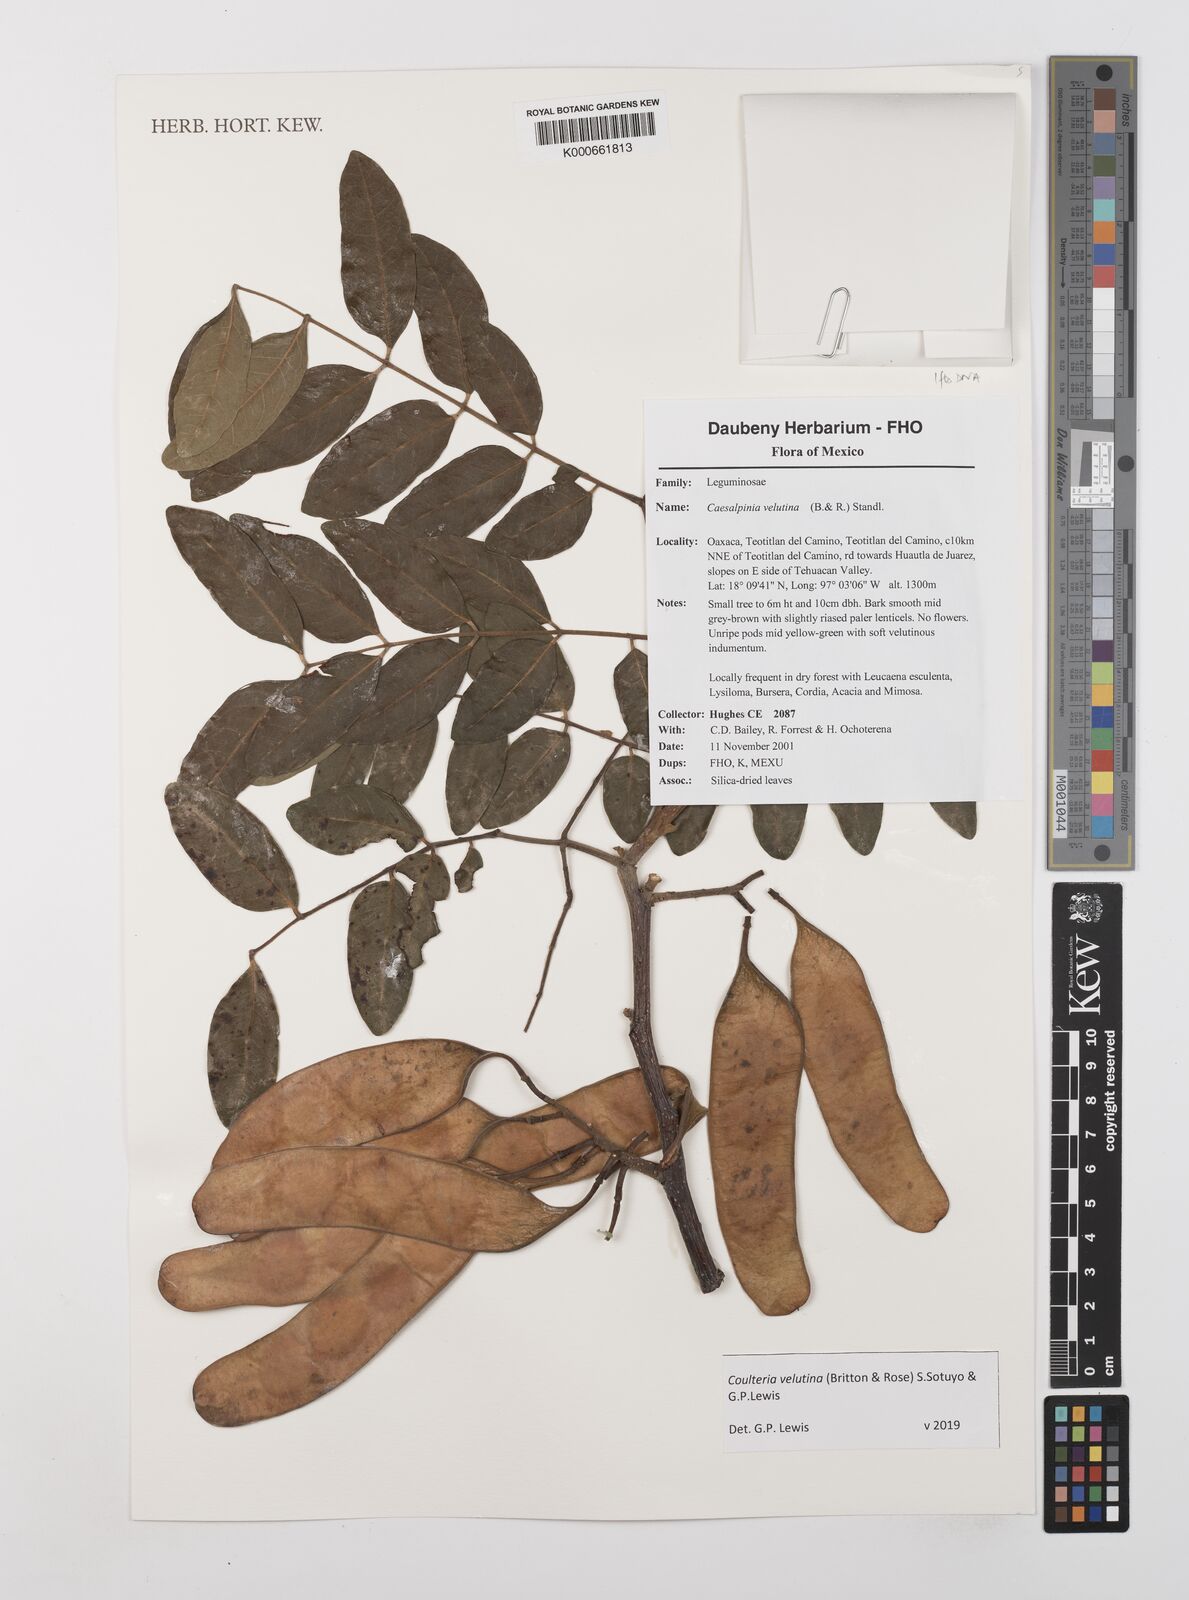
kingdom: Plantae
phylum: Tracheophyta
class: Magnoliopsida
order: Fabales
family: Fabaceae
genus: Coulteria
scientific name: Coulteria velutina
